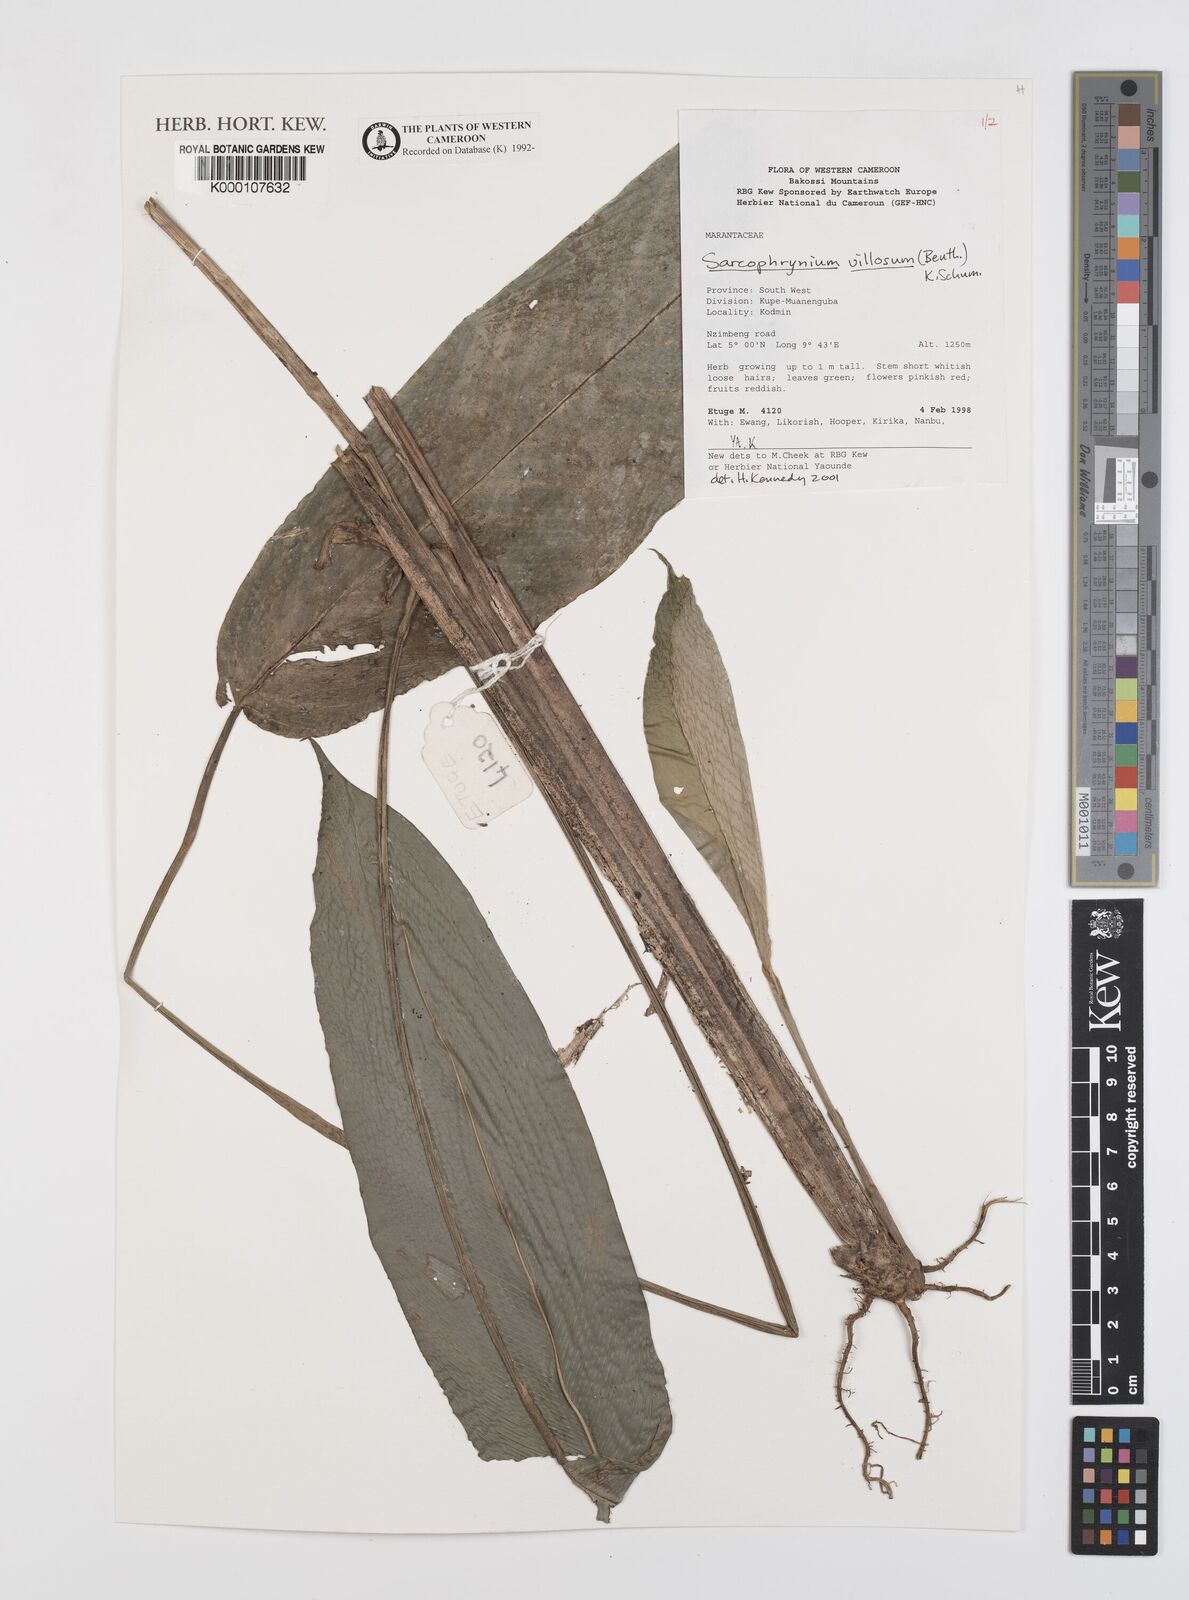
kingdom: Plantae
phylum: Tracheophyta
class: Liliopsida
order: Zingiberales
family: Marantaceae
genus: Sarcophrynium
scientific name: Sarcophrynium villosum
